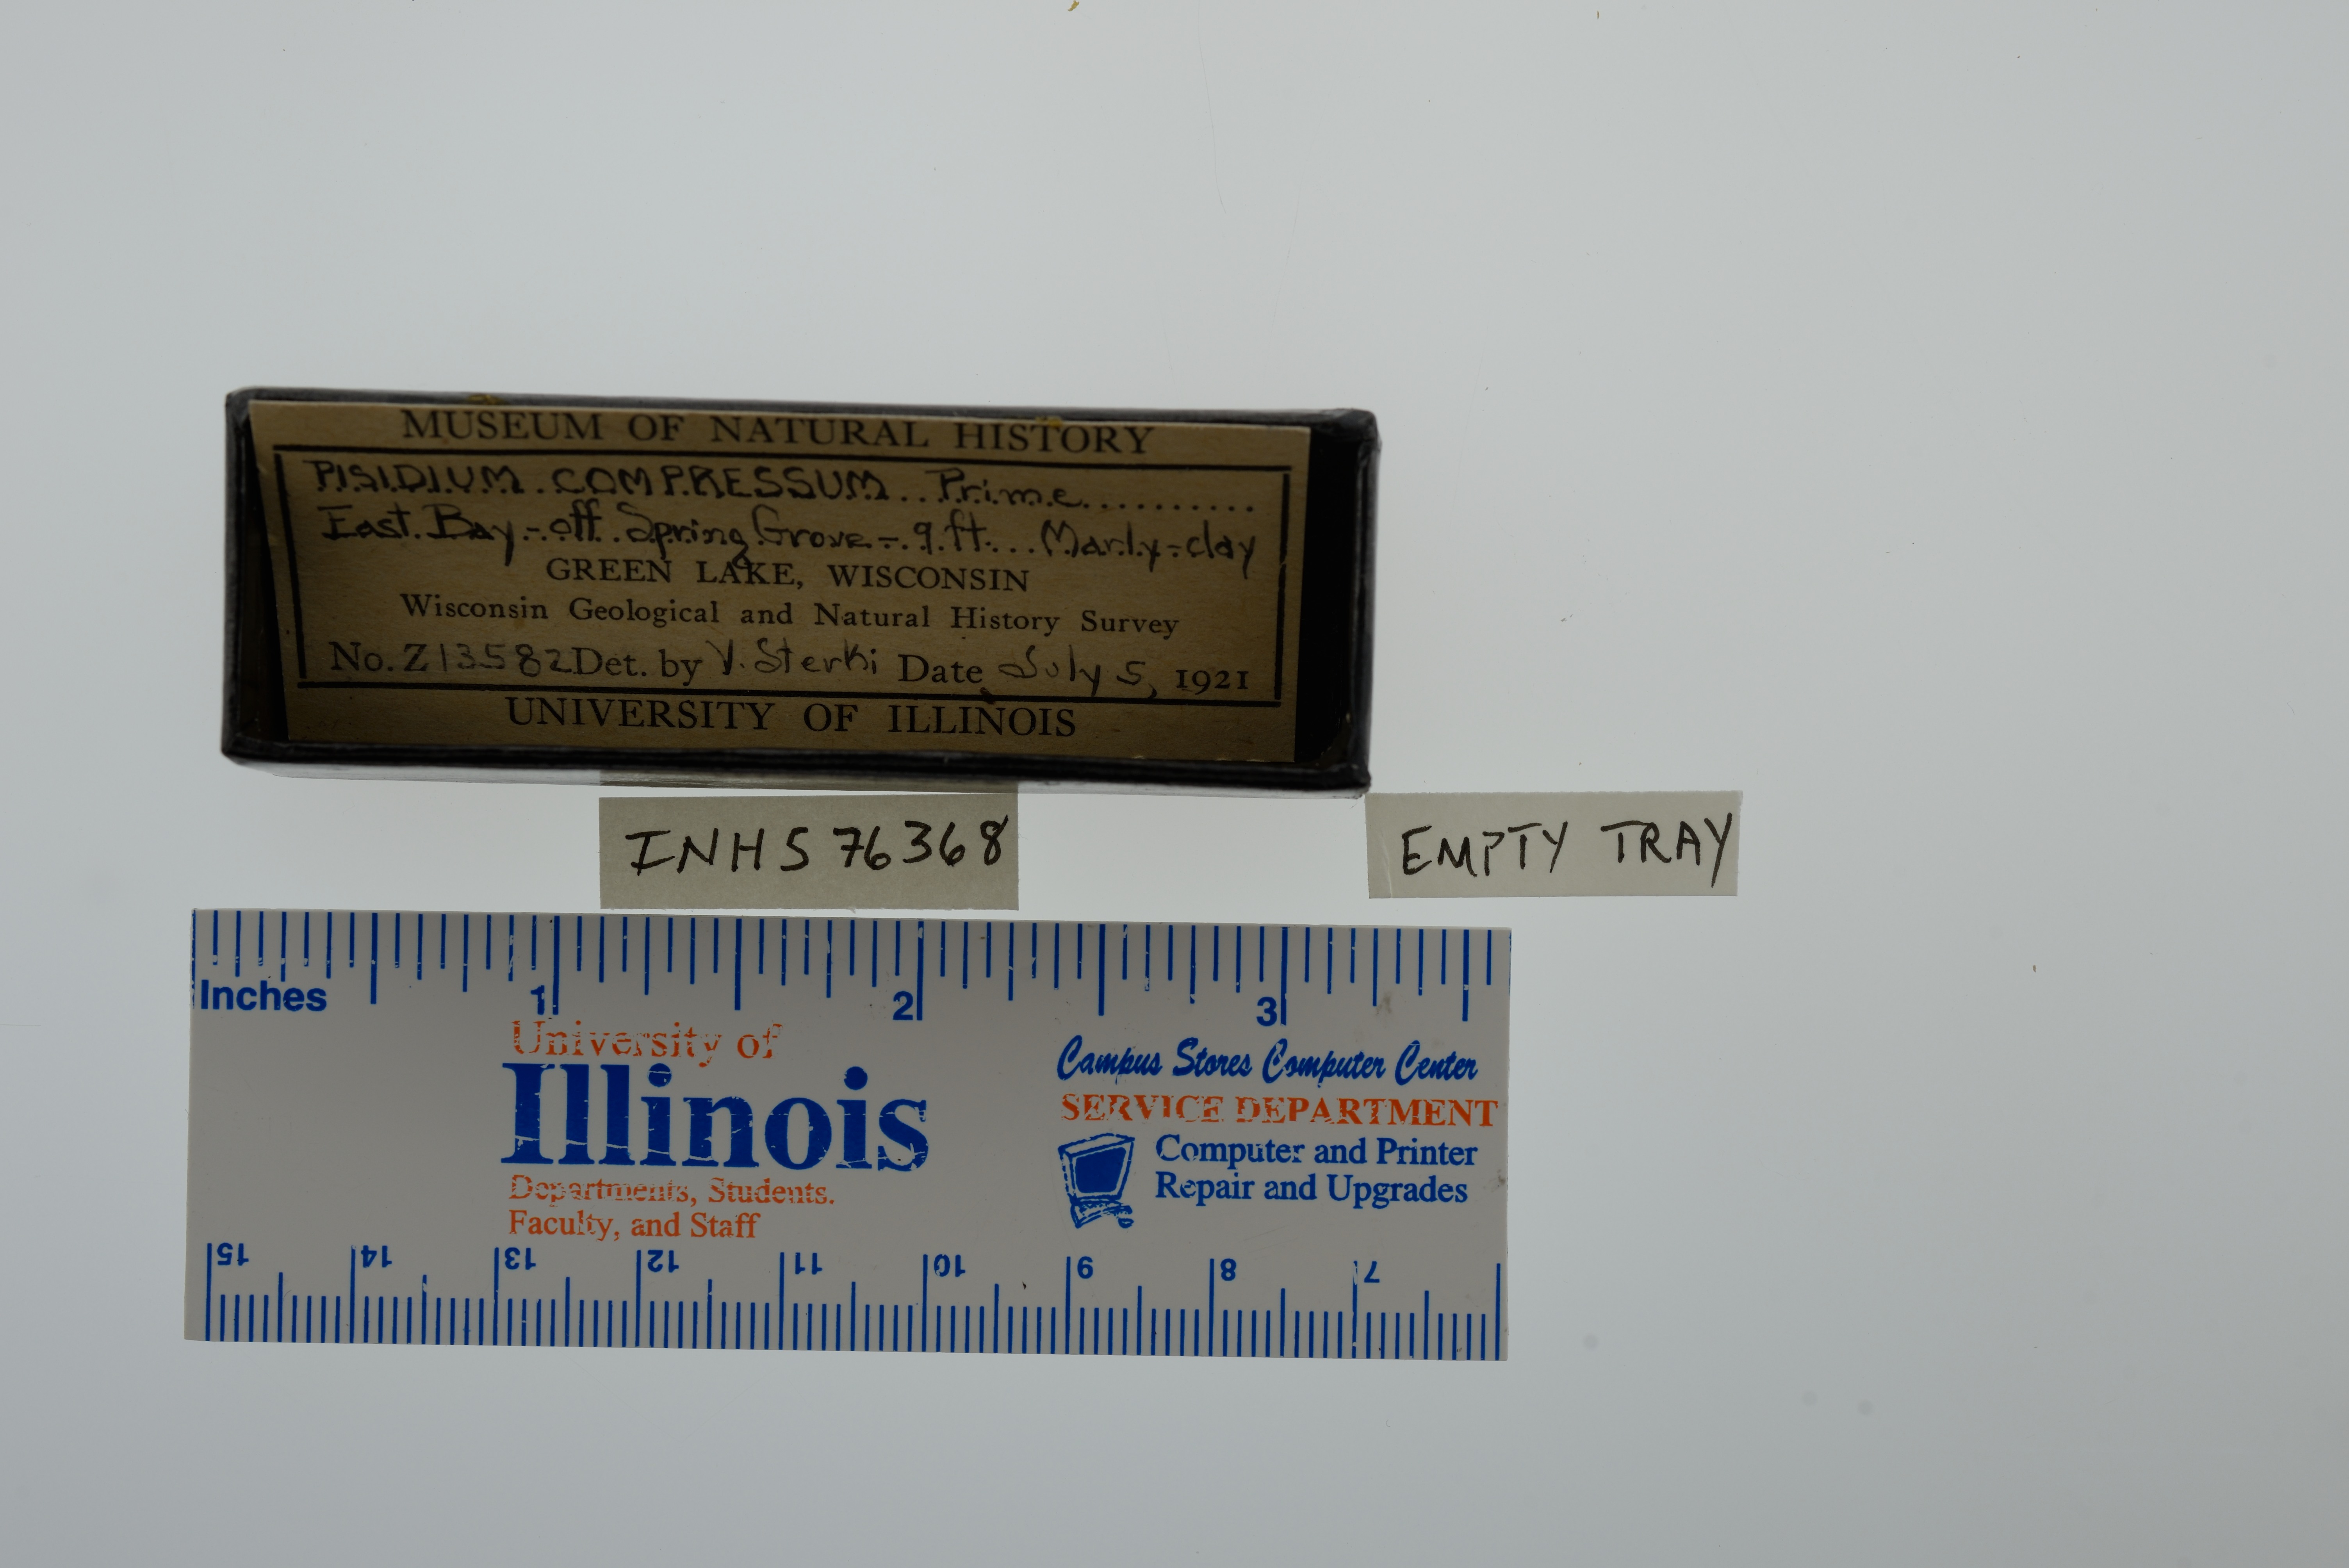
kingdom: Animalia
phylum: Mollusca
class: Bivalvia
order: Sphaeriida
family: Sphaeriidae
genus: Euglesa
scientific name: Euglesa compressa
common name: Ridgedbeak peaclam
